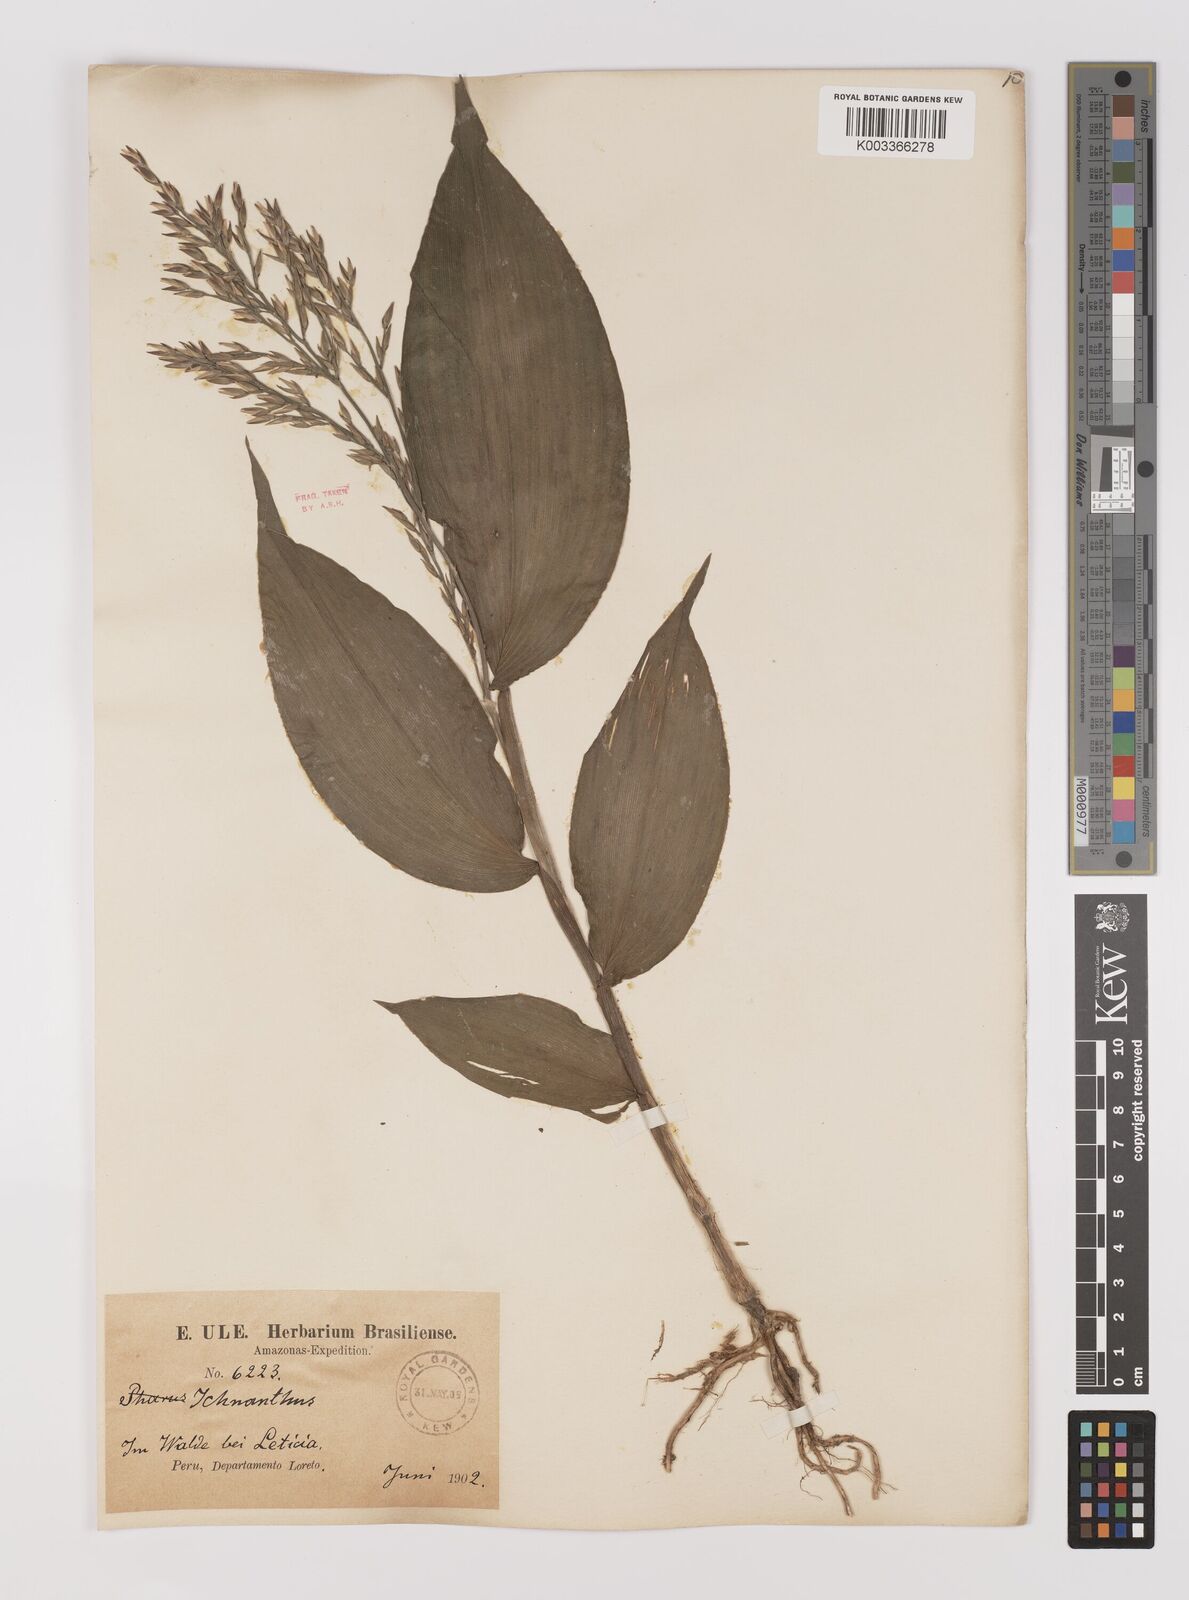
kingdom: Plantae
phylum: Tracheophyta
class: Liliopsida
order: Poales
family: Poaceae
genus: Ichnanthus
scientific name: Ichnanthus panicoides
